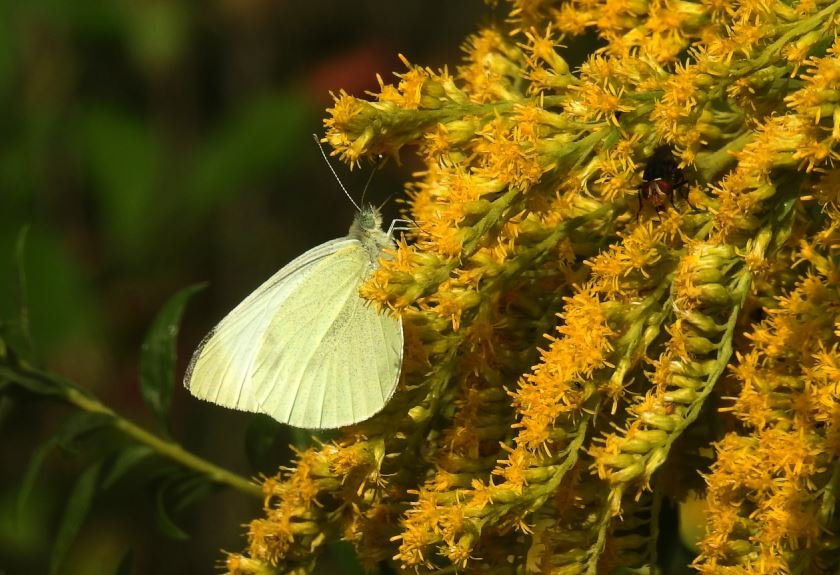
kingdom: Animalia
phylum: Arthropoda
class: Insecta
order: Lepidoptera
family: Pieridae
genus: Pieris
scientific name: Pieris rapae
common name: Cabbage White
